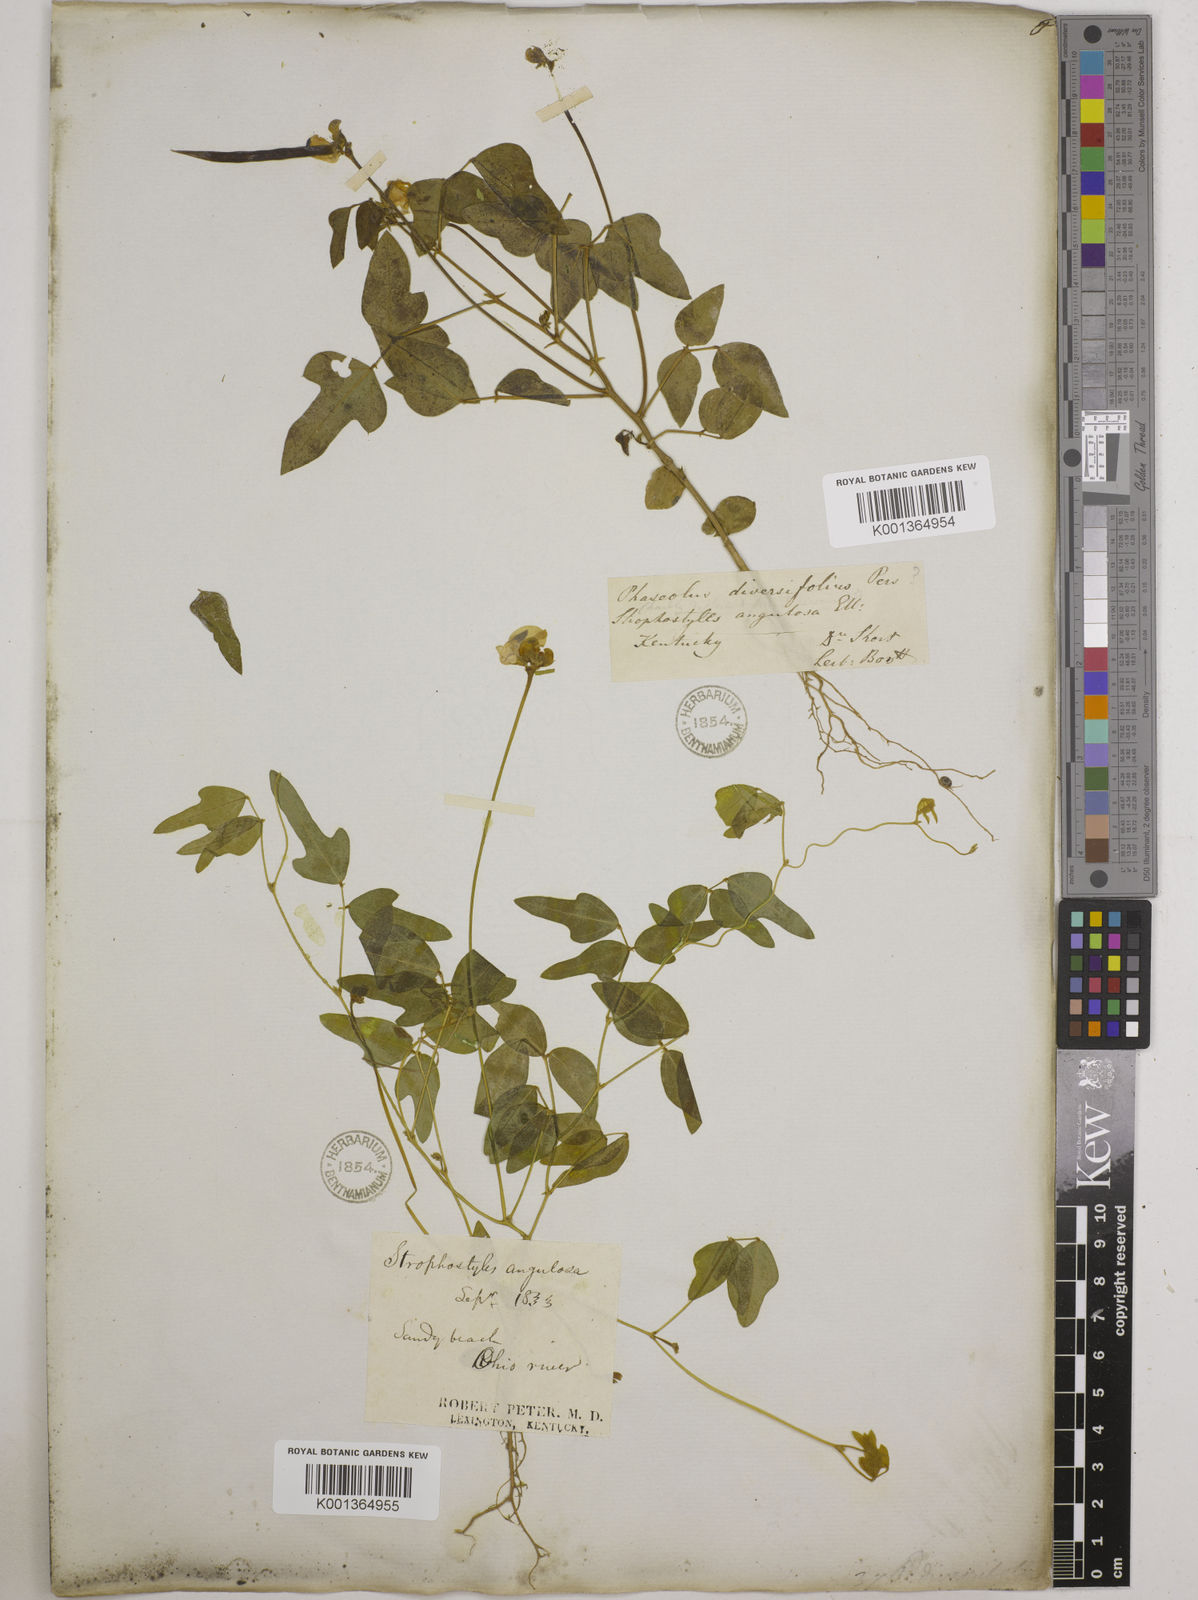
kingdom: Plantae
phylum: Tracheophyta
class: Magnoliopsida
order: Fabales
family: Fabaceae
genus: Strophostyles
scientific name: Strophostyles
